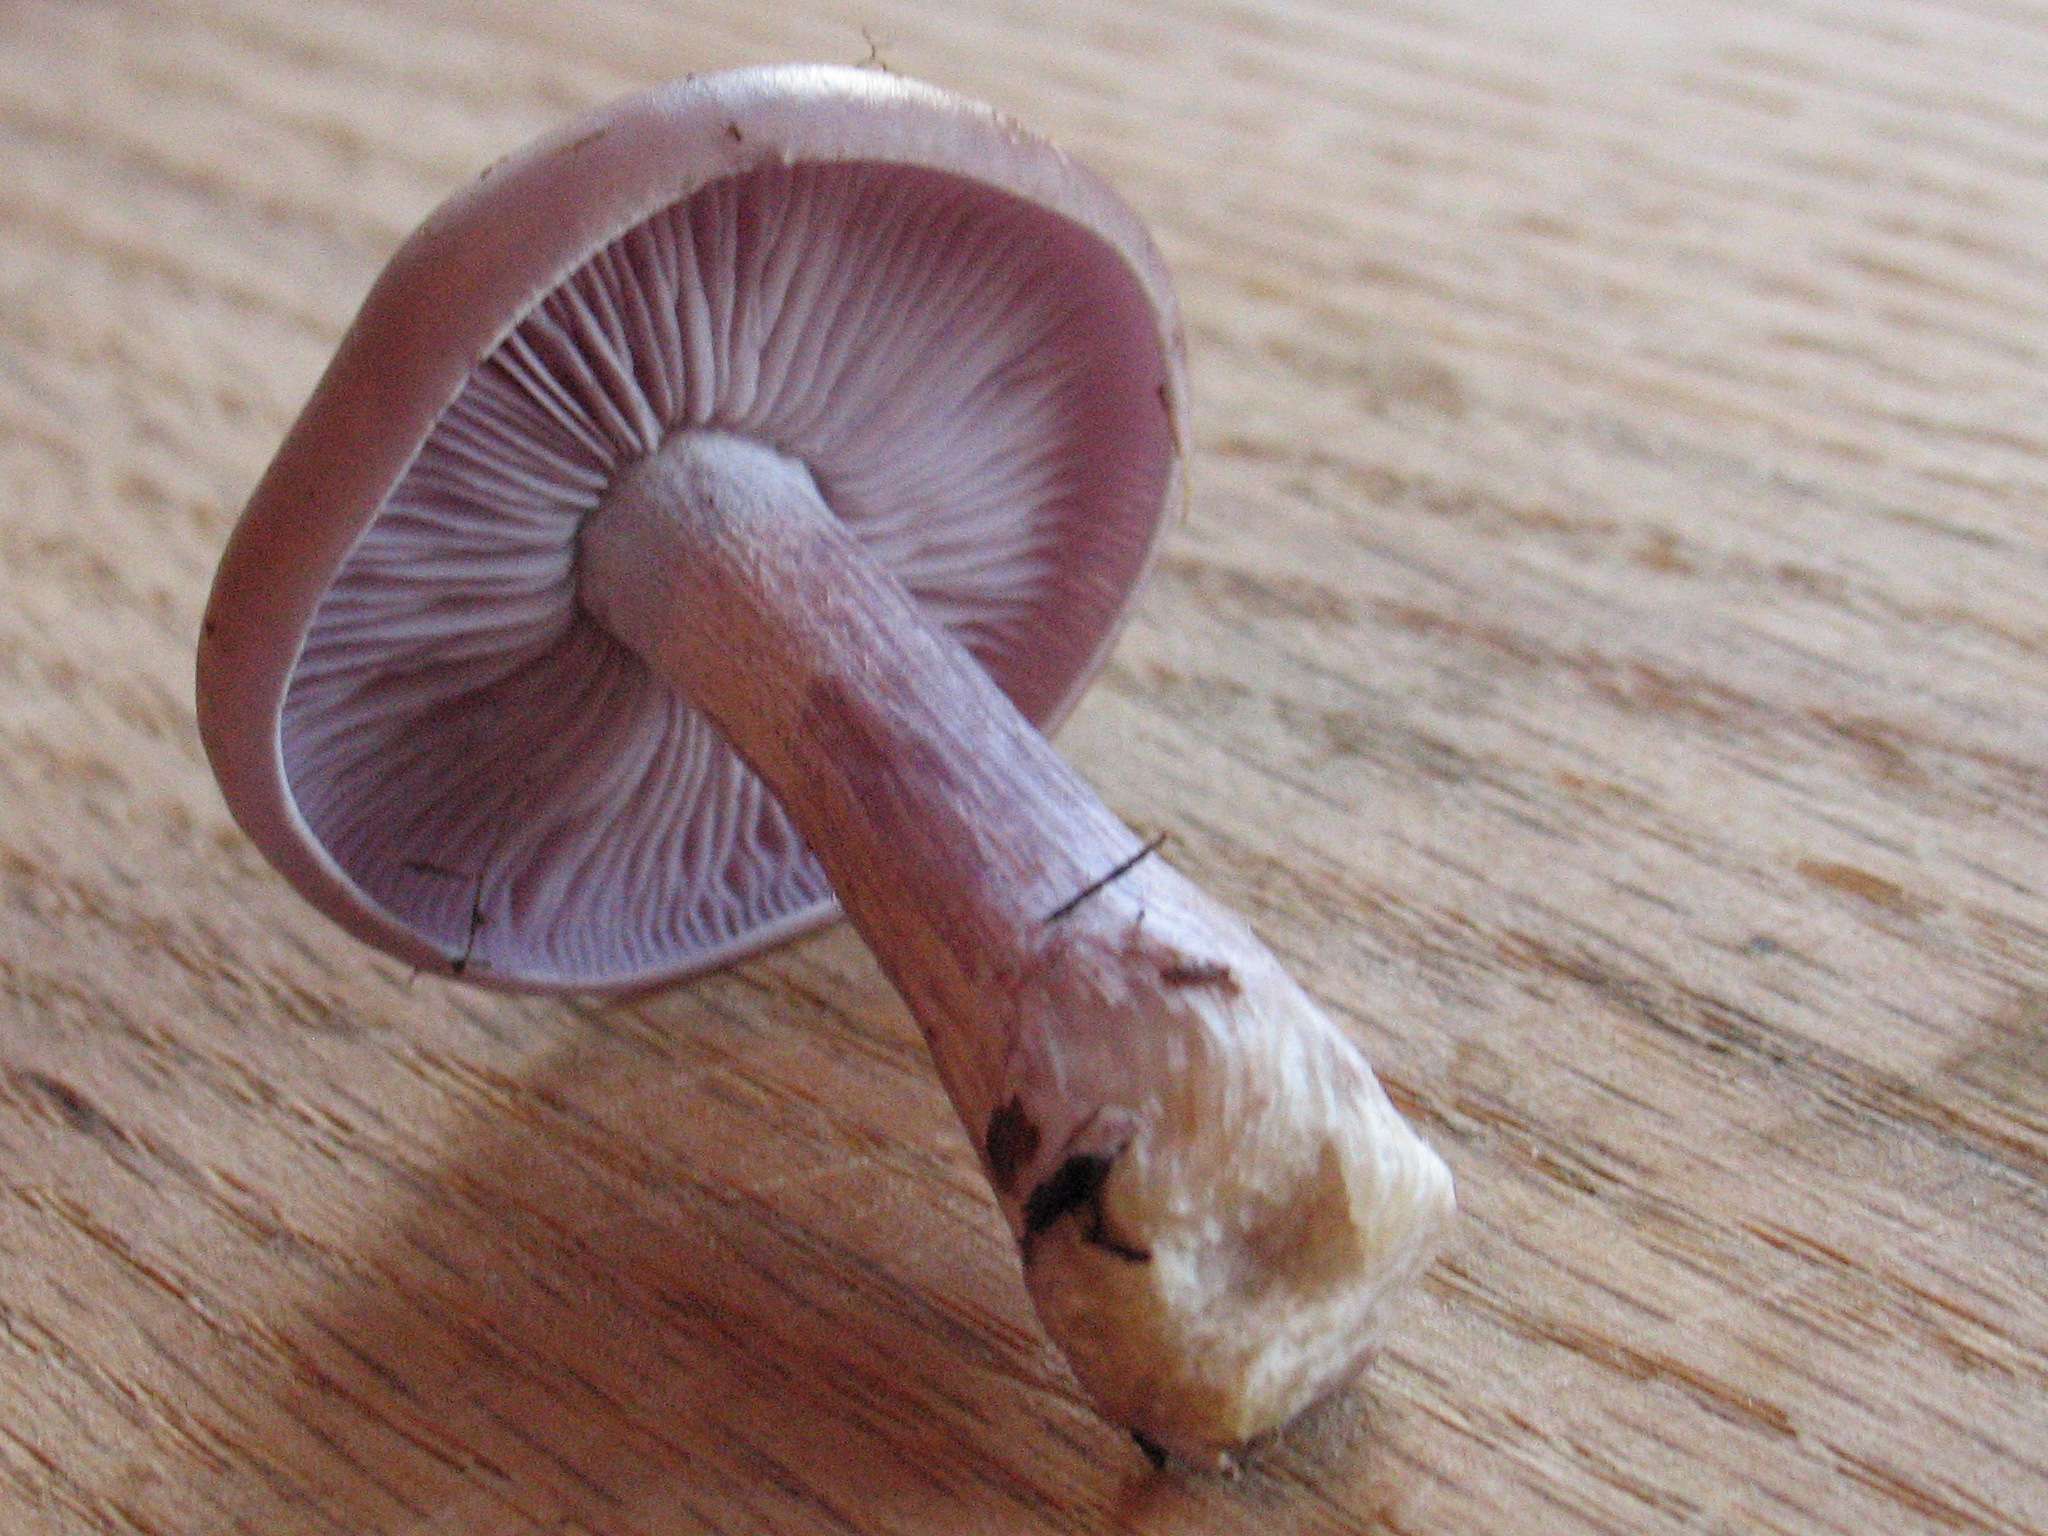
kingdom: Fungi
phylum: Basidiomycota
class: Agaricomycetes
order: Agaricales
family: Tricholomataceae
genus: Lepista
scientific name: Lepista nuda
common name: violet hekseringshat
